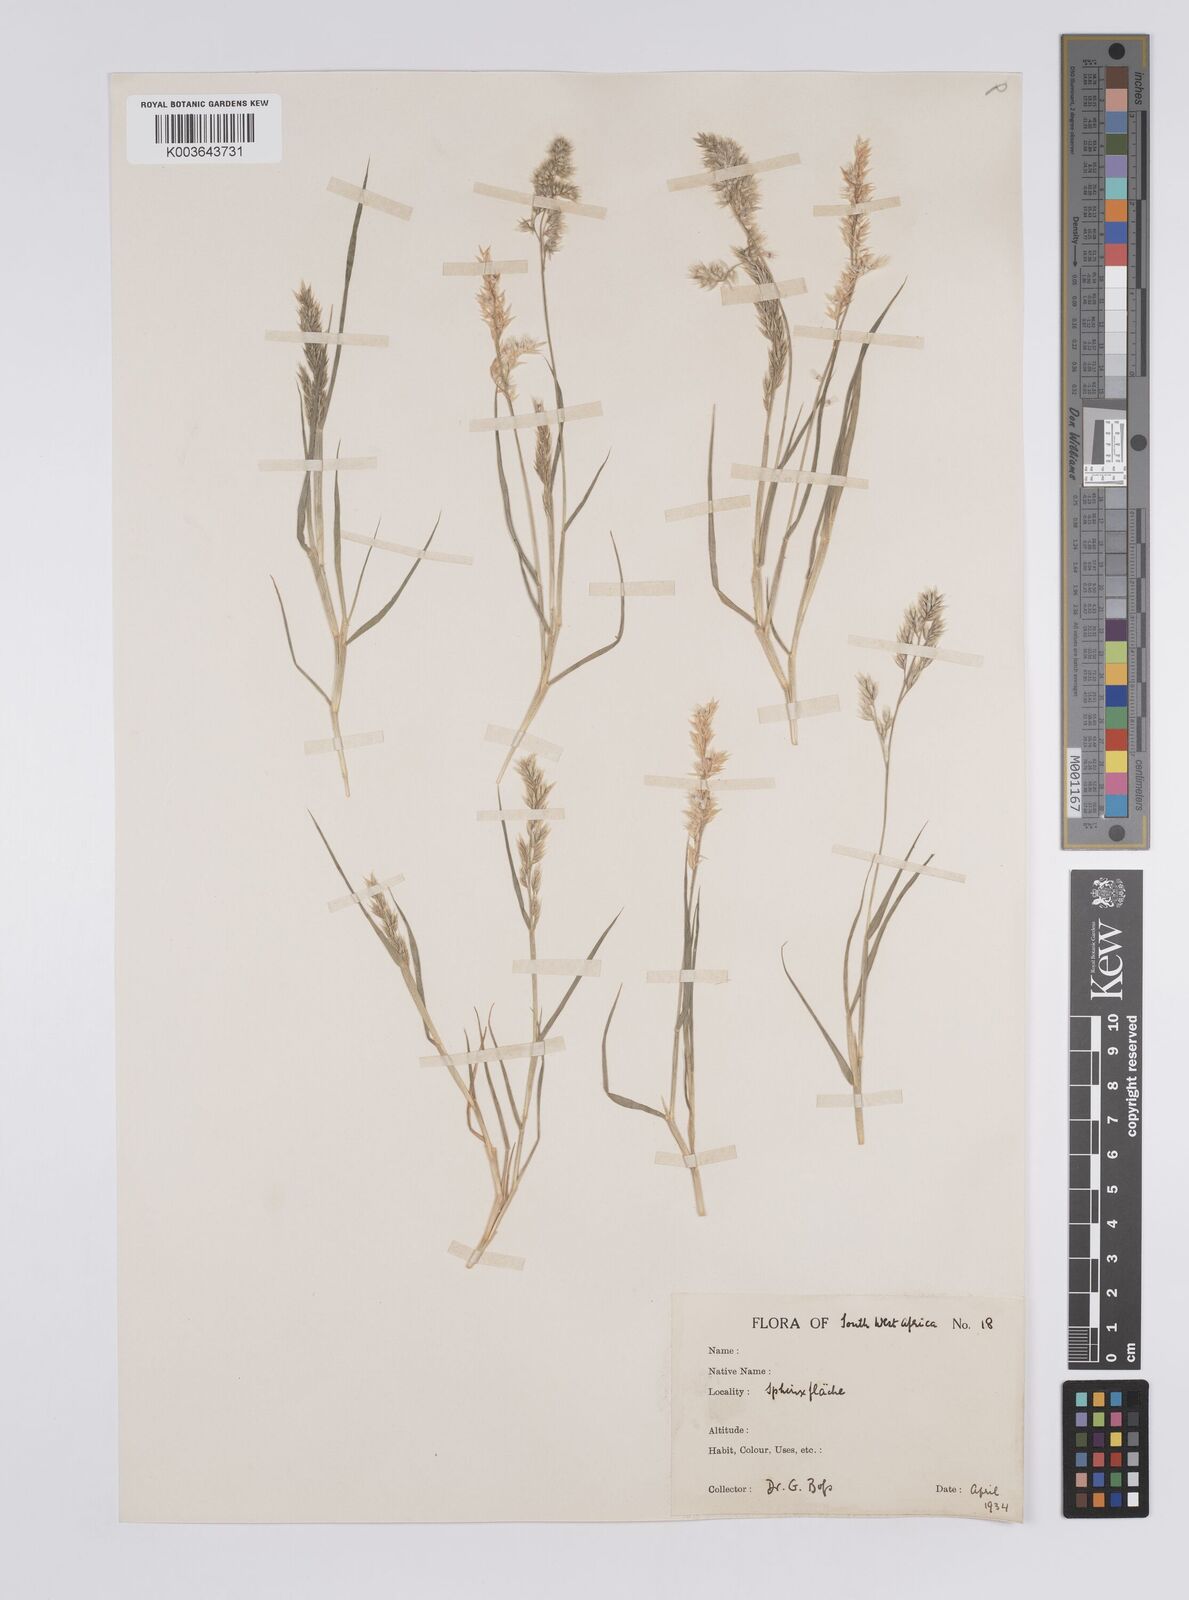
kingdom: Plantae
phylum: Tracheophyta
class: Liliopsida
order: Poales
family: Poaceae
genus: Enneapogon
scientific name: Enneapogon scaber
